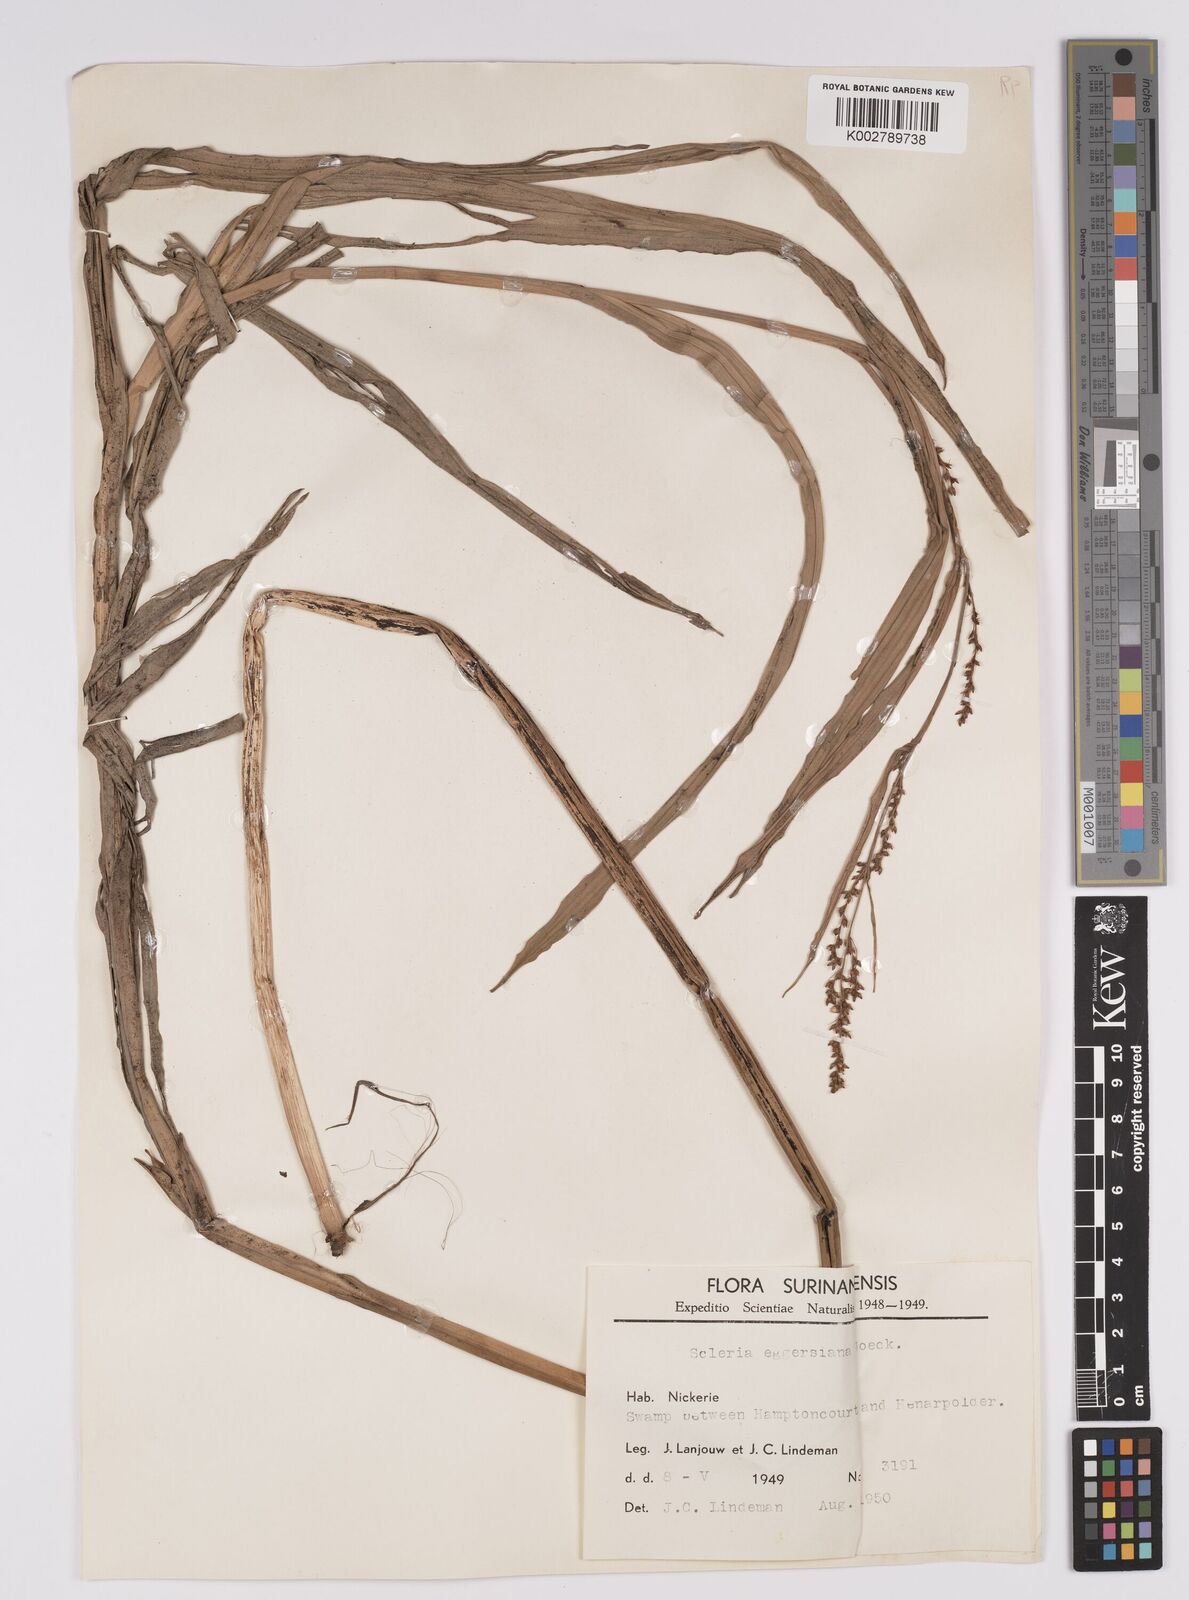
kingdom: Plantae
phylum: Tracheophyta
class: Liliopsida
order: Poales
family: Cyperaceae
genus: Scleria
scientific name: Scleria eggersiana
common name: Eggers' nutrush
